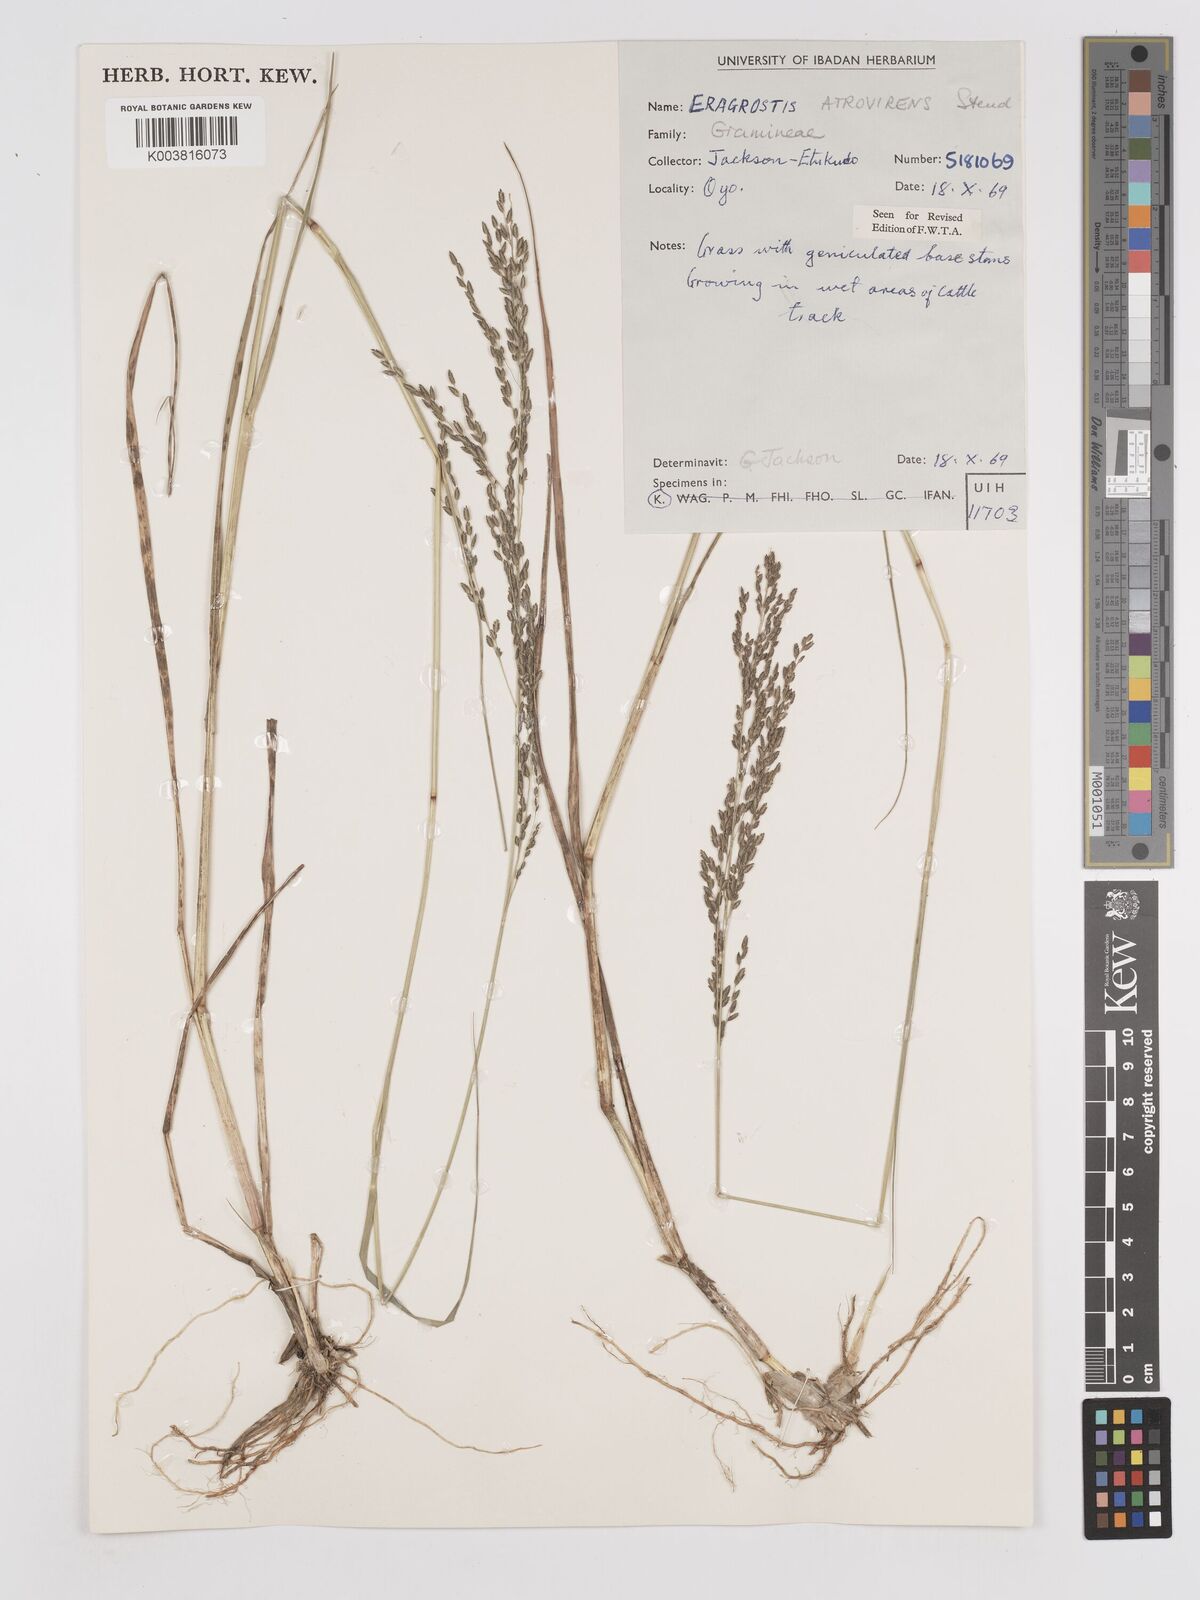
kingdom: Plantae
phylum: Tracheophyta
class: Liliopsida
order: Poales
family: Poaceae
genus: Eragrostis
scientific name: Eragrostis atrovirens
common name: Thalia lovegrass
